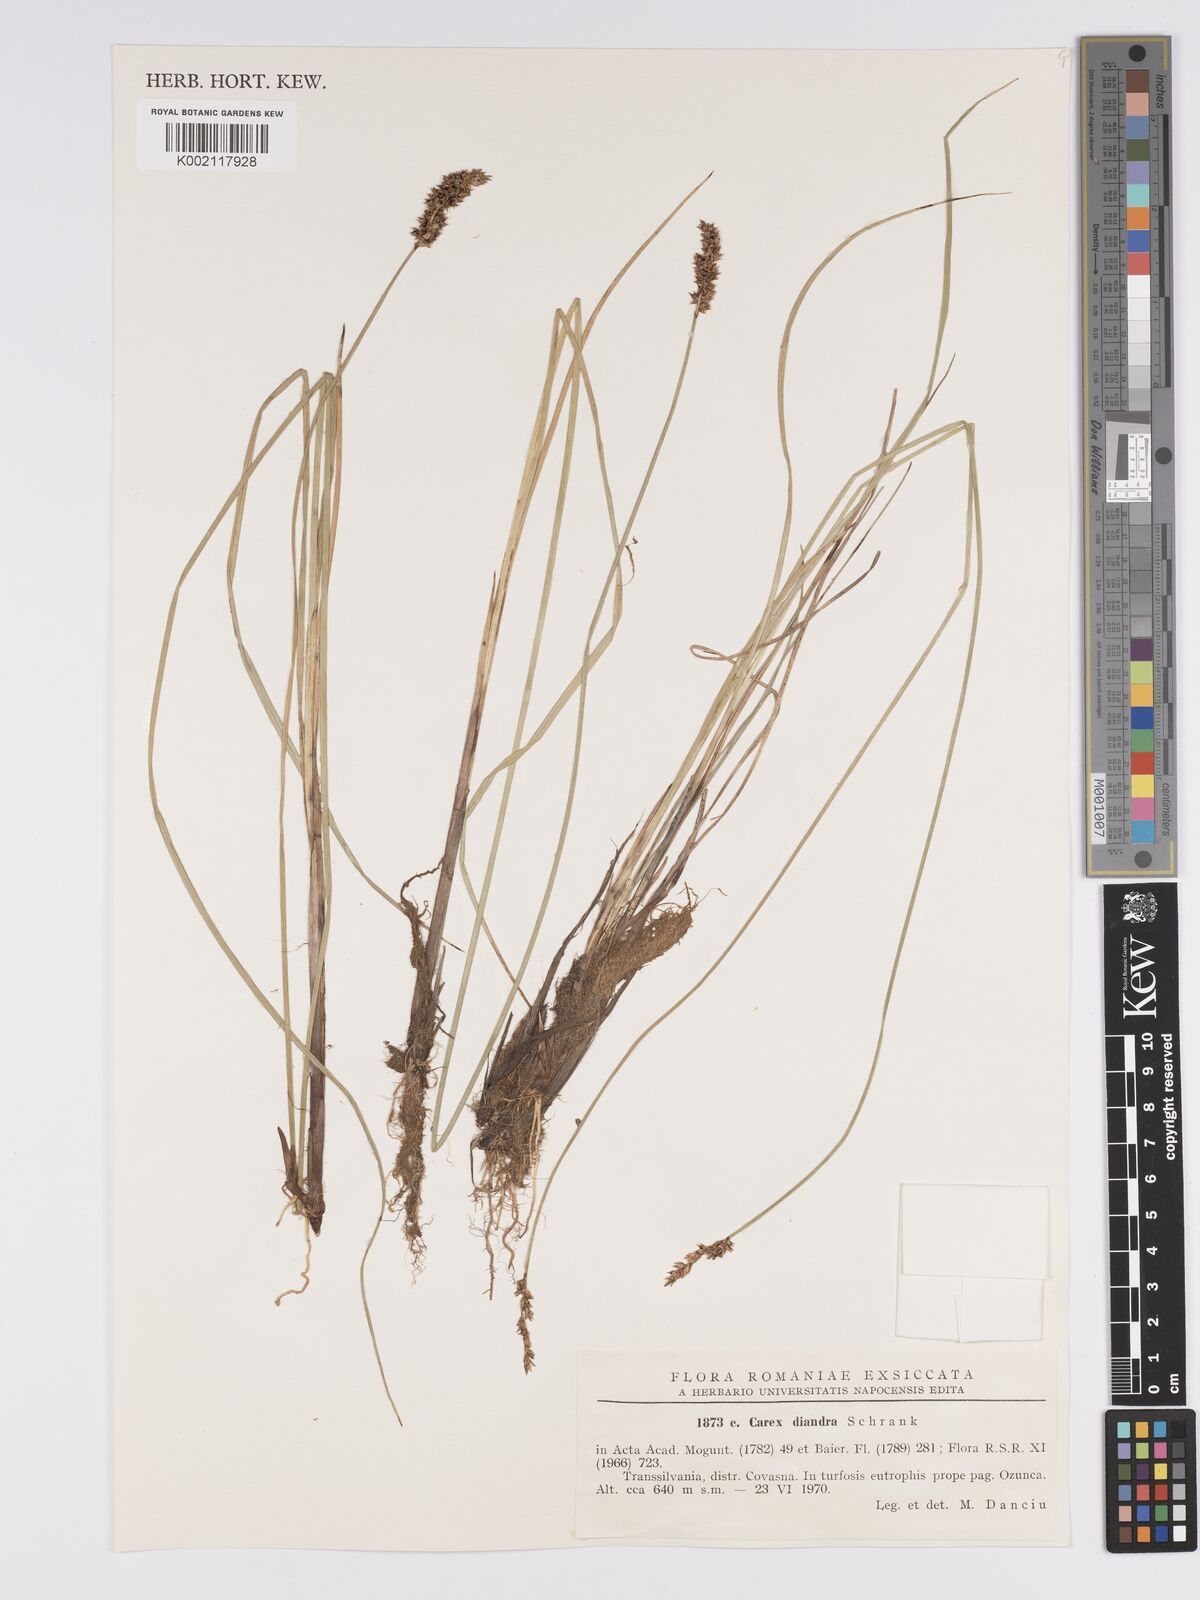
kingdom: Plantae
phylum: Tracheophyta
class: Liliopsida
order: Poales
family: Cyperaceae
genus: Carex
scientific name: Carex diandra
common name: Lesser tussock-sedge
